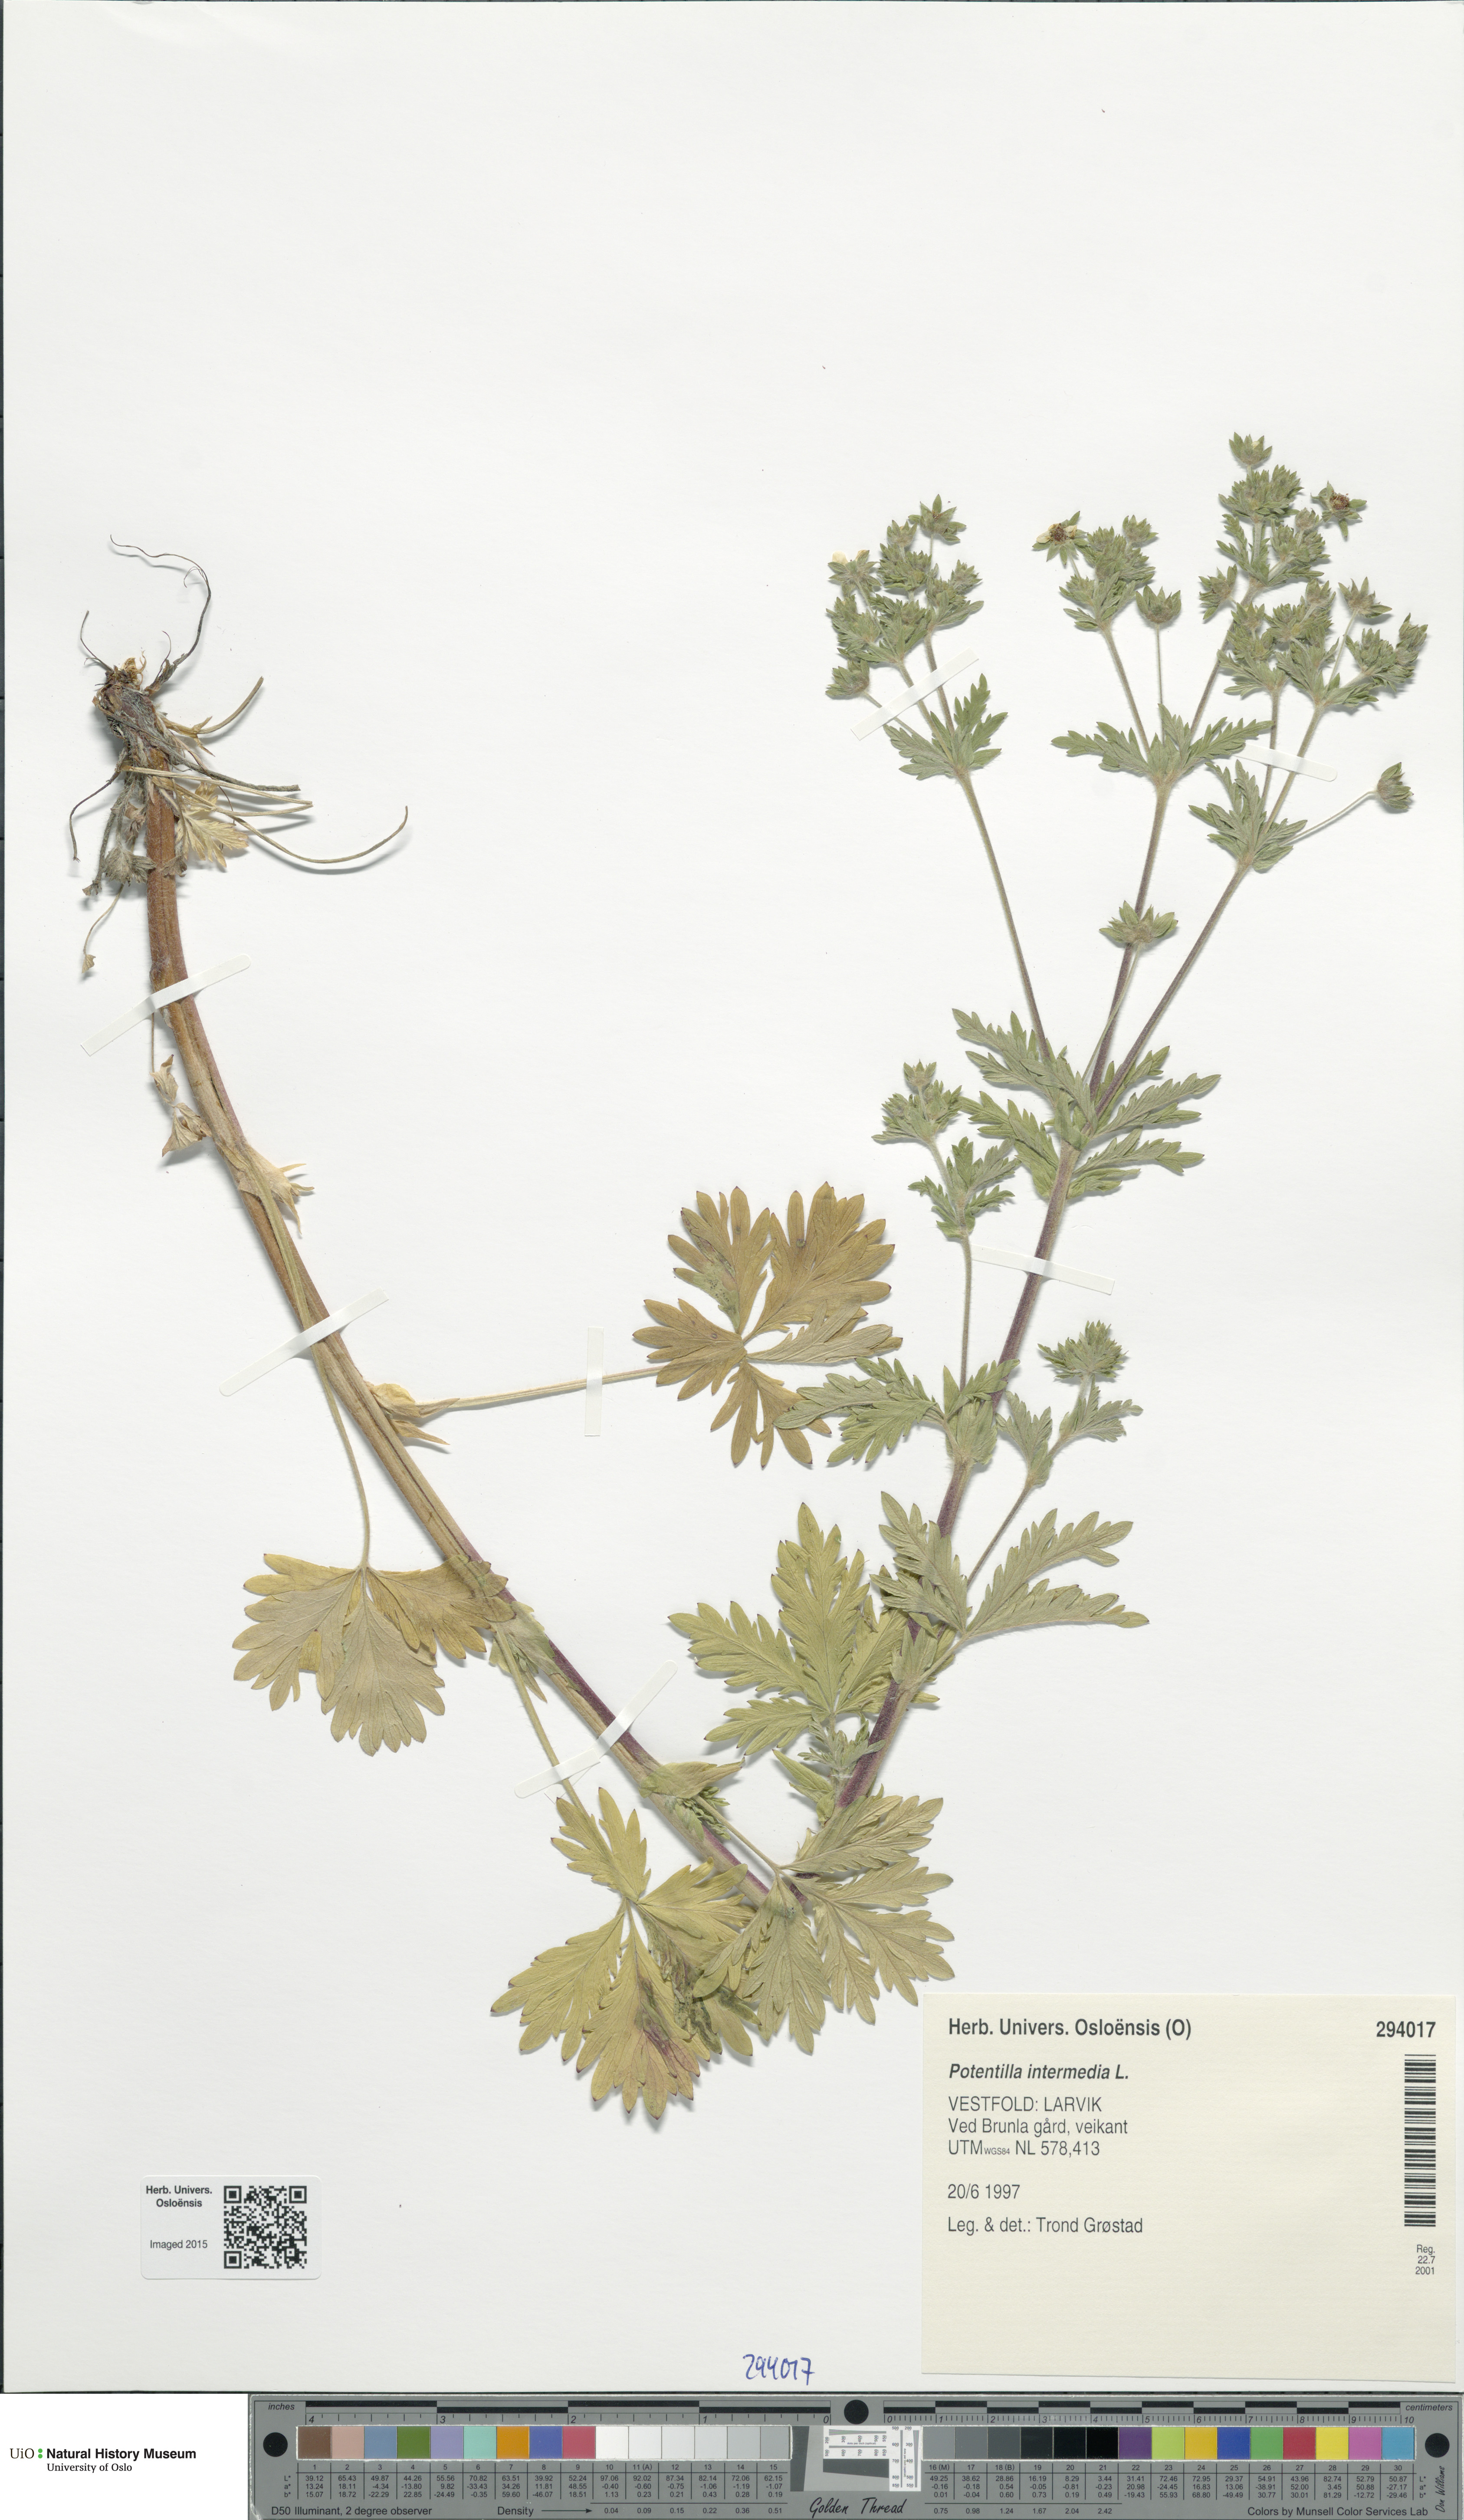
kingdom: Plantae
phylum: Tracheophyta
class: Magnoliopsida
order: Rosales
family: Rosaceae
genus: Potentilla
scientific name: Potentilla intermedia
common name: Downy cinquefoil
